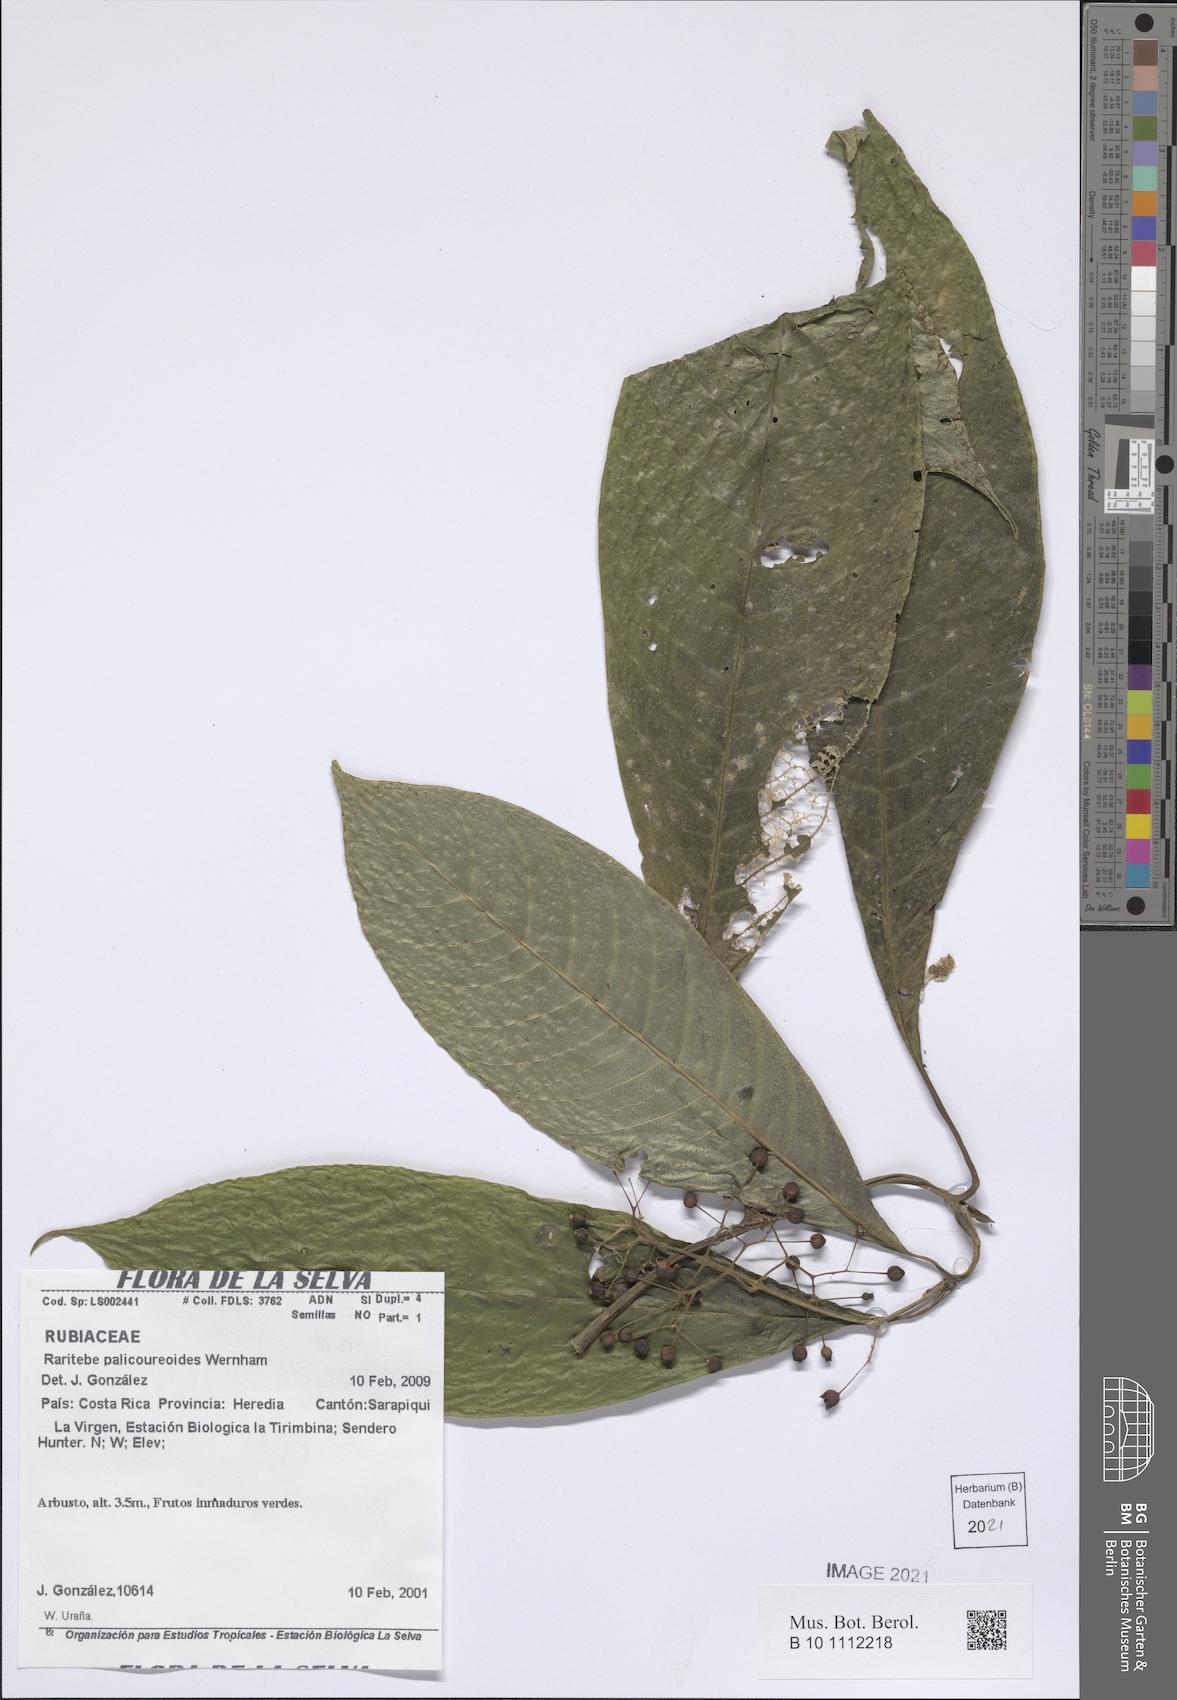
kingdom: Plantae
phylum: Tracheophyta
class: Magnoliopsida
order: Gentianales
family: Rubiaceae
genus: Raritebe
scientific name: Raritebe palicoureoides
